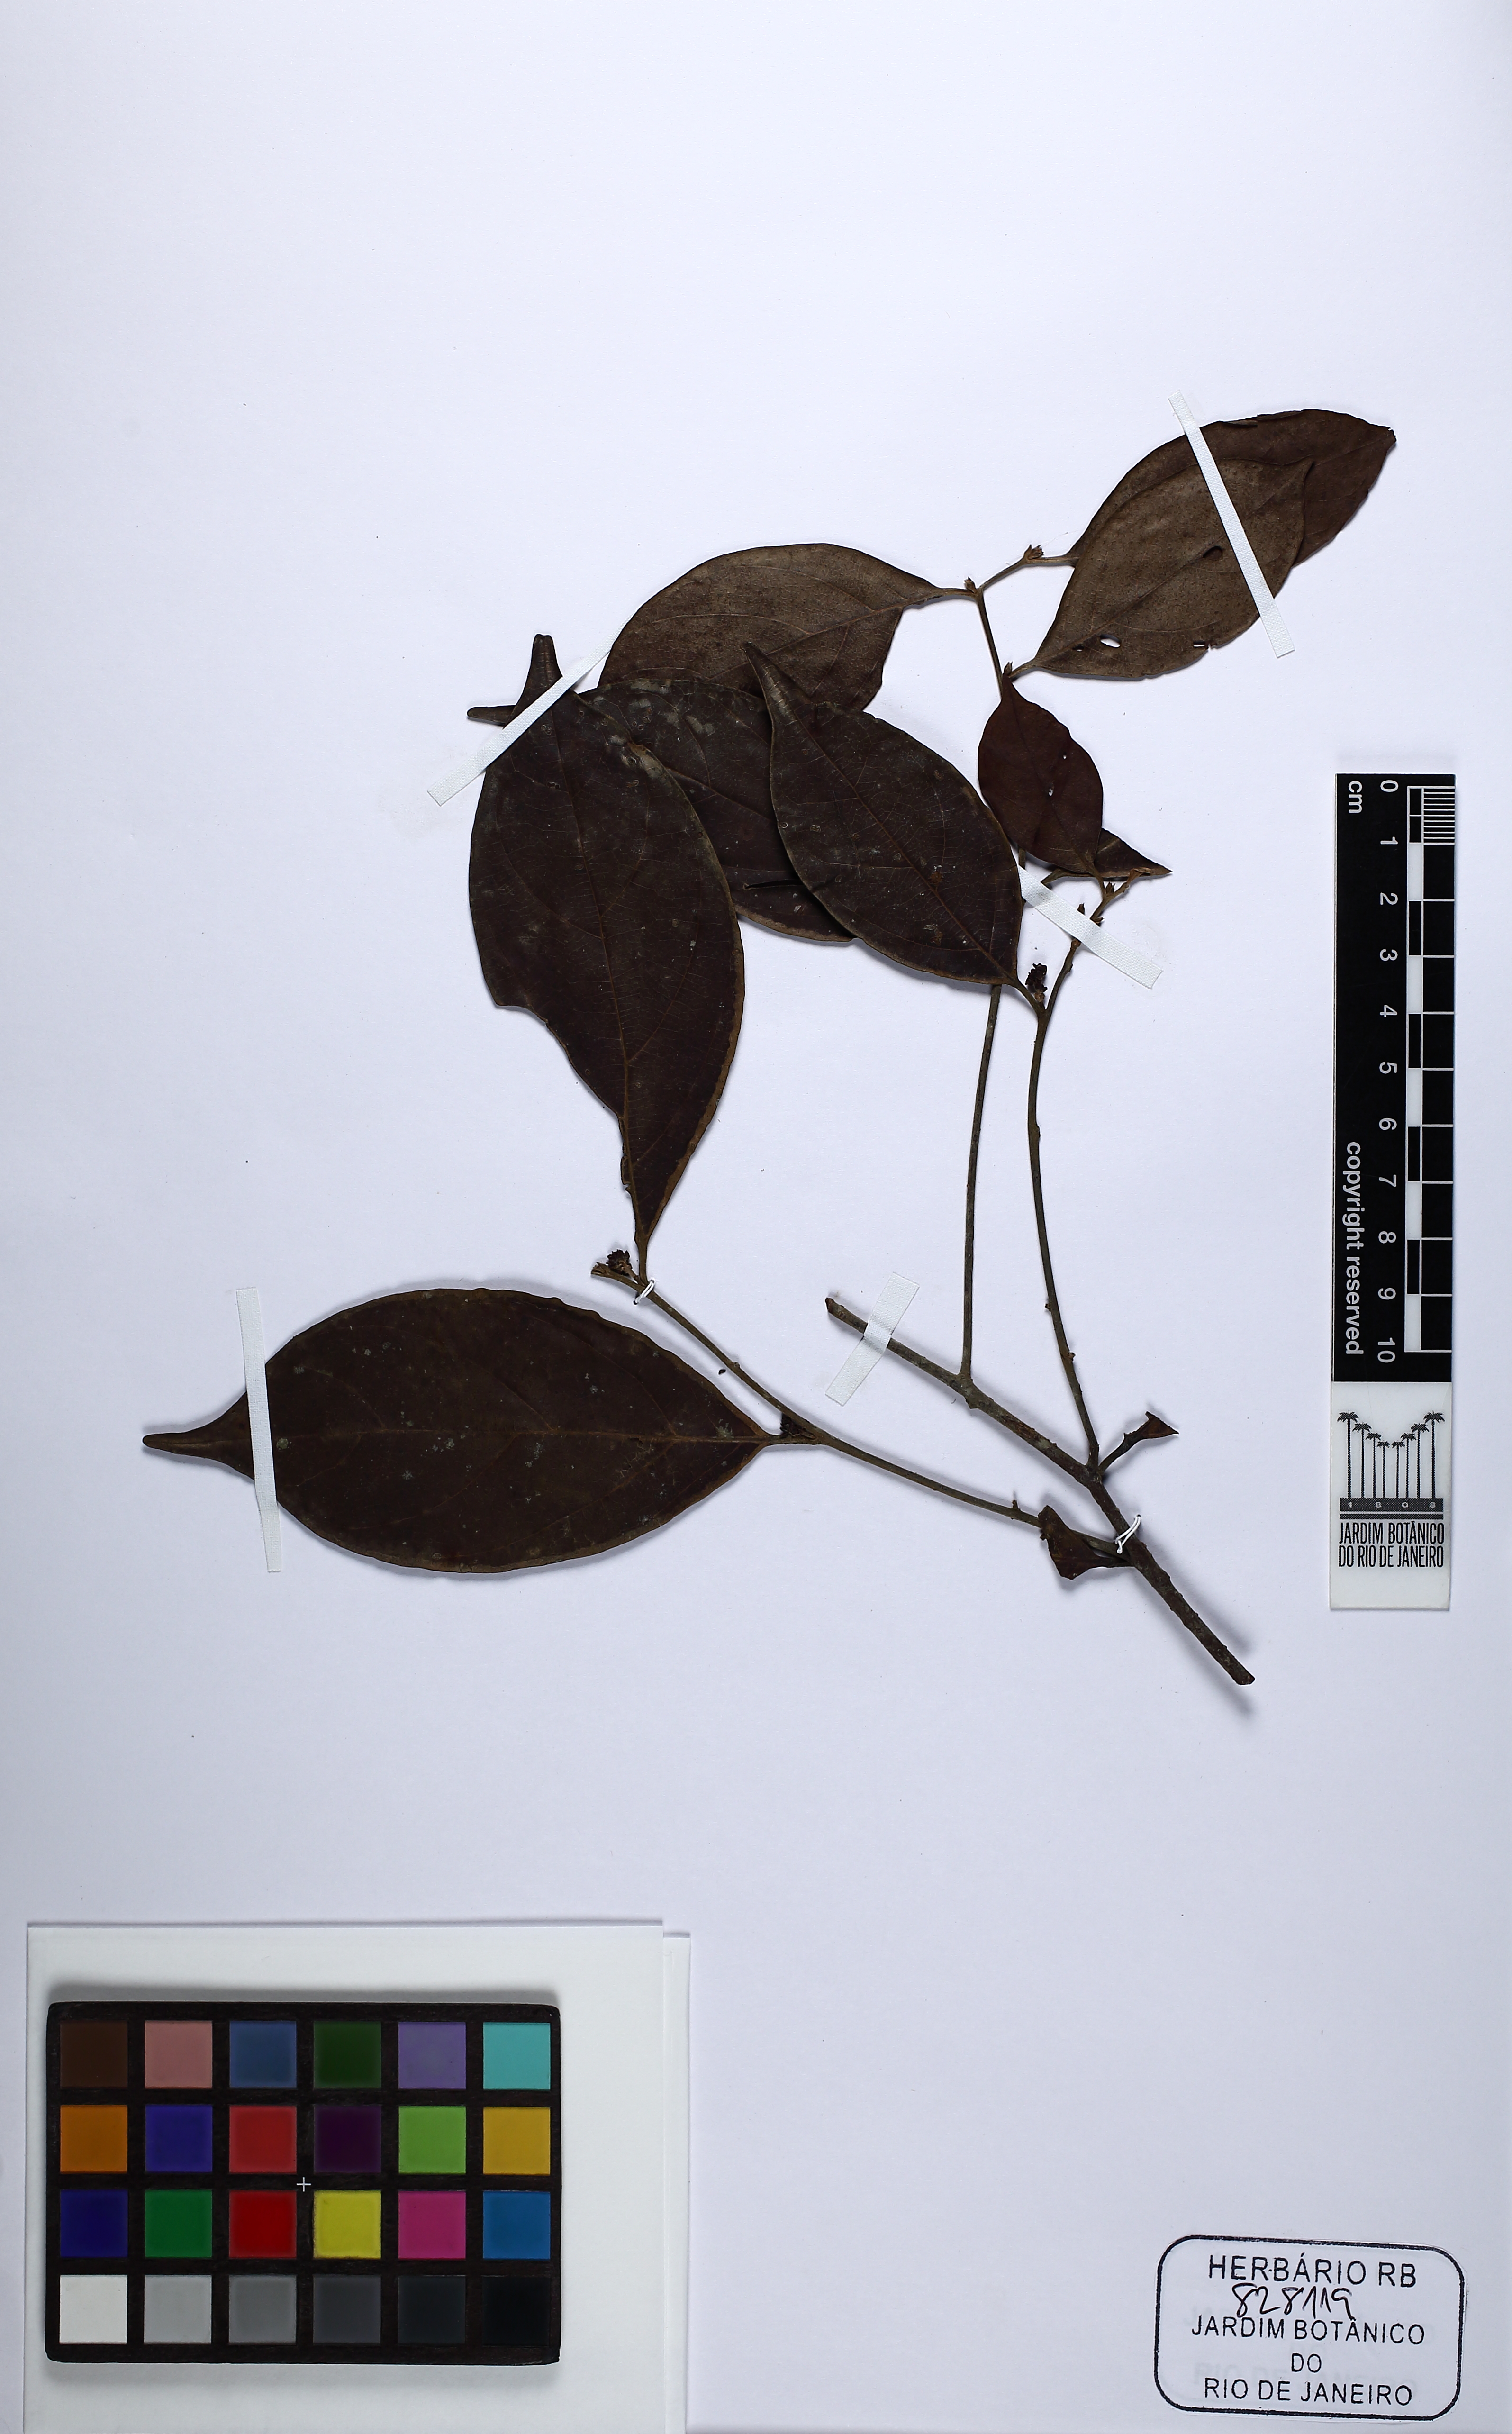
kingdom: Plantae
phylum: Tracheophyta
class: Magnoliopsida
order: Laurales
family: Lauraceae
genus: Ocotea
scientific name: Ocotea dispersa
